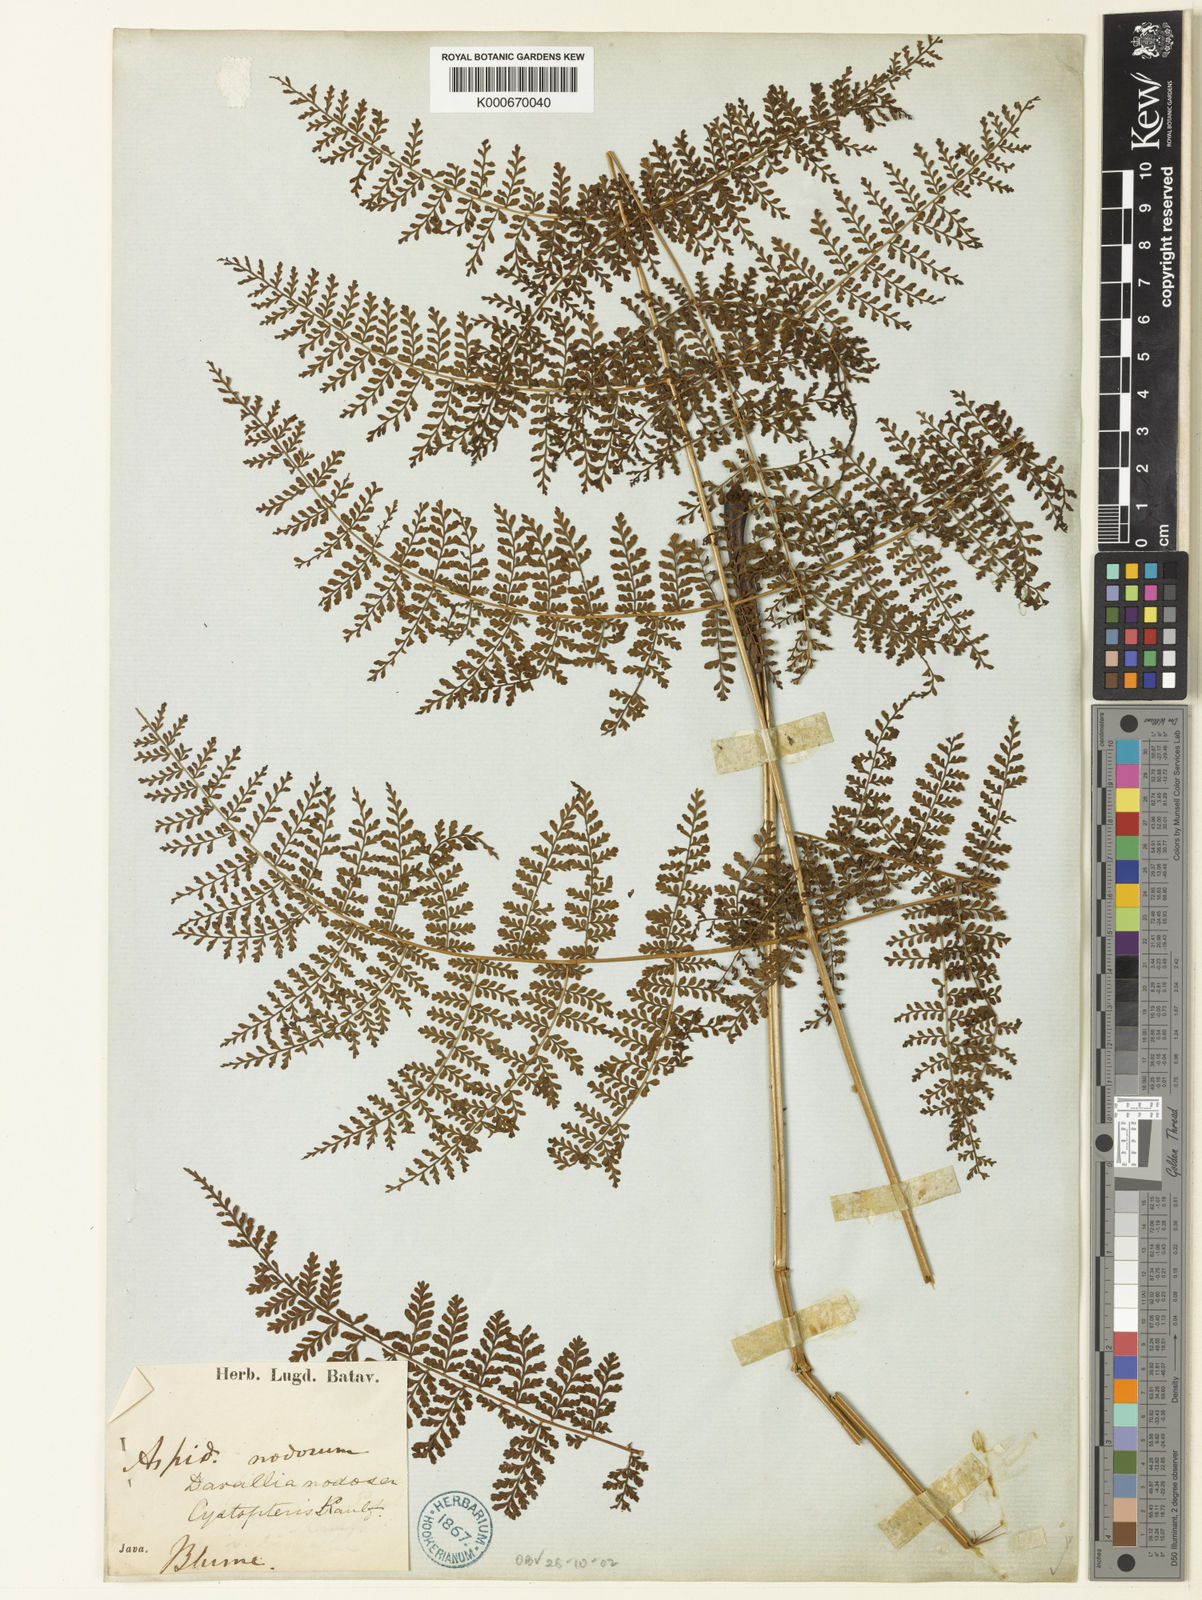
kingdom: Plantae
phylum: Tracheophyta
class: Polypodiopsida
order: Polypodiales
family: Dryopteridaceae
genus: Dryopteris
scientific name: Dryopteris nodosa
